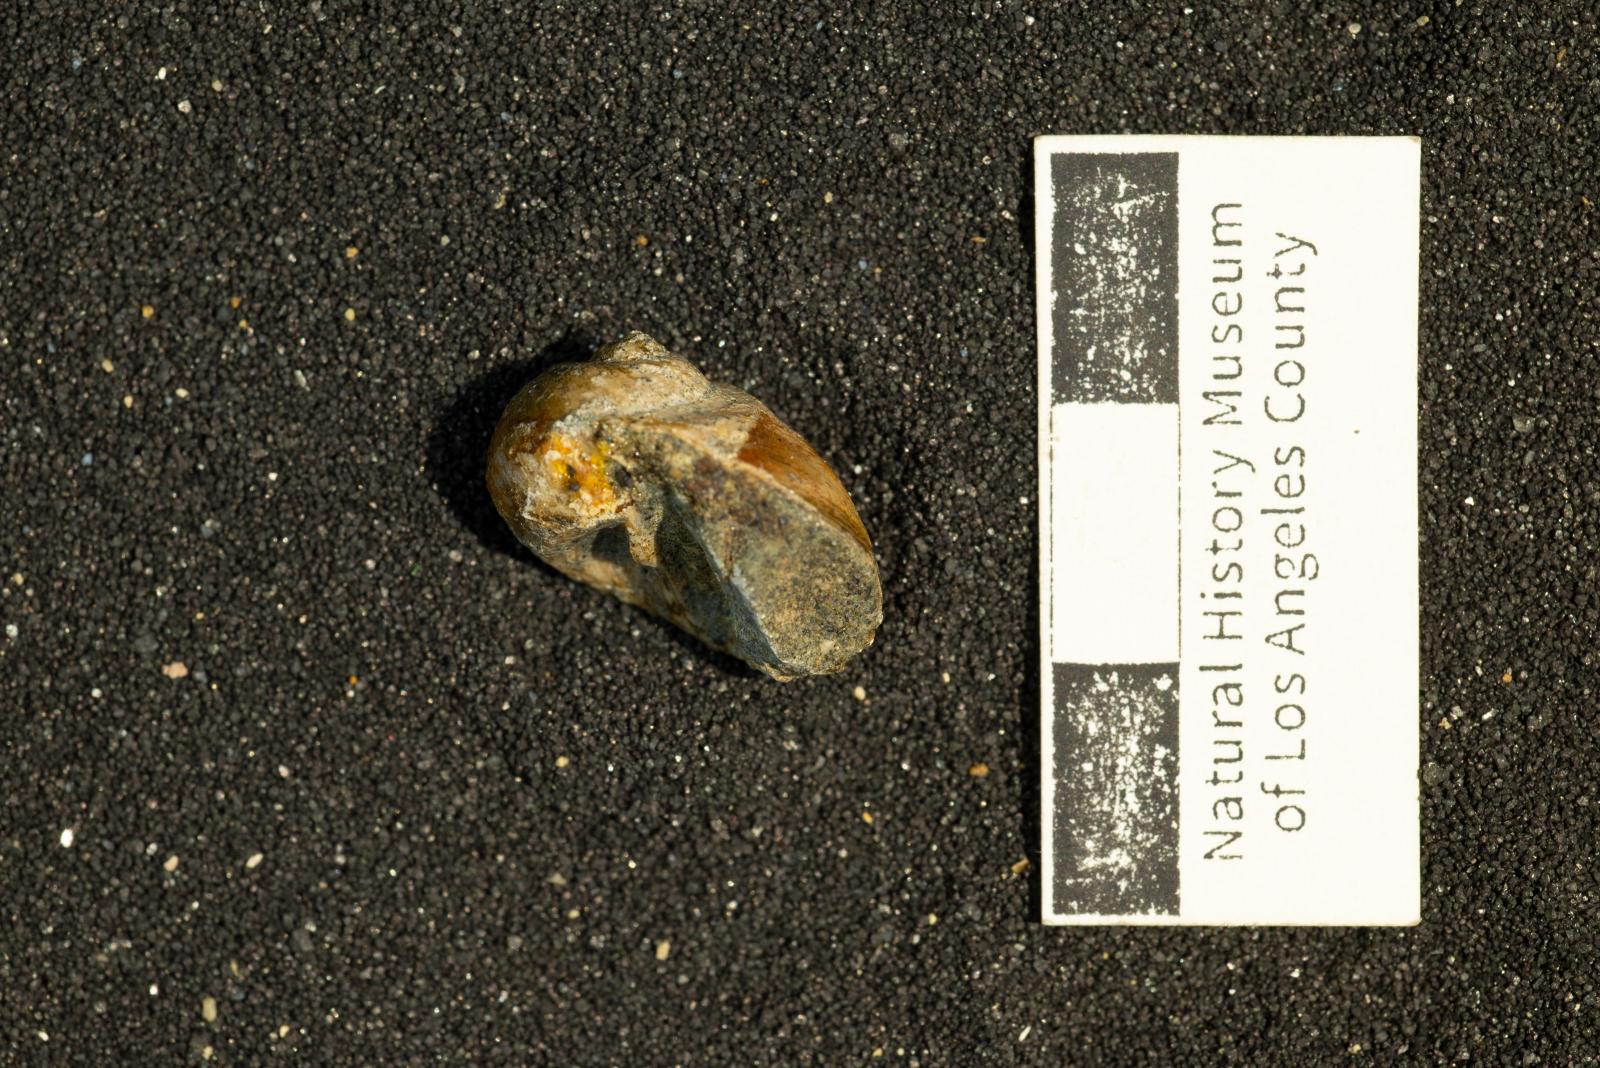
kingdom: Animalia
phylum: Mollusca
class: Gastropoda
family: Gyrodidae
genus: Gyrodes
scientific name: Gyrodes quercus
